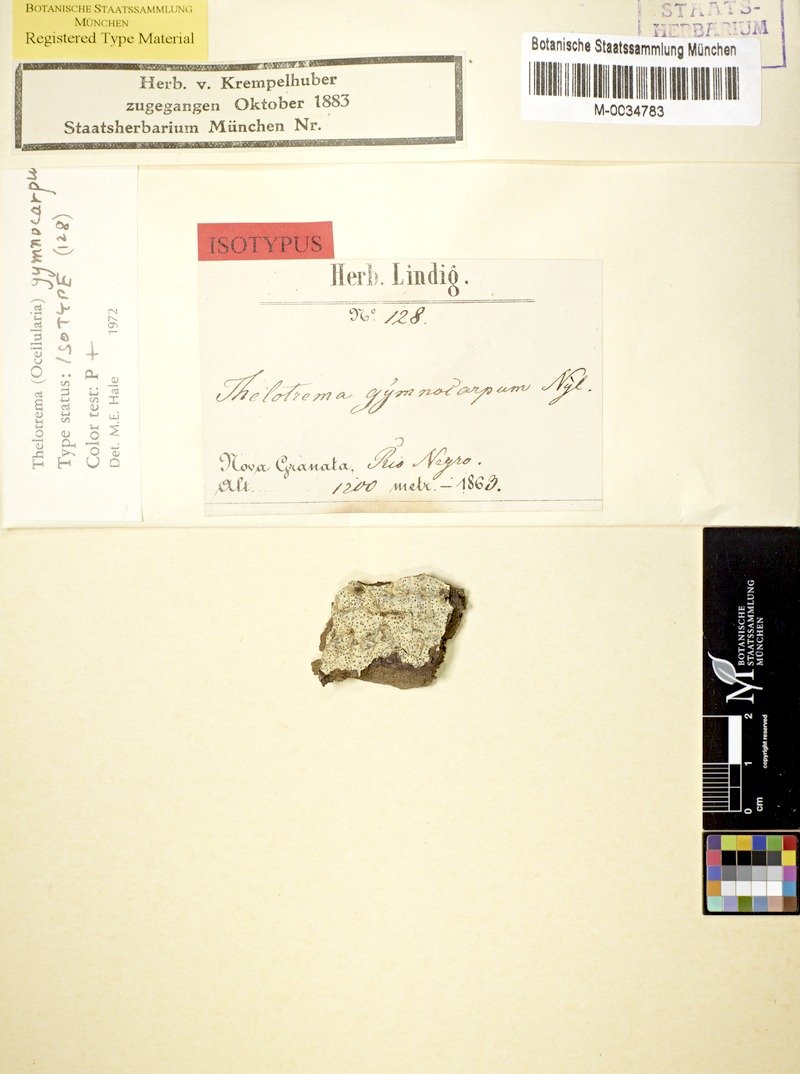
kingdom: Fungi
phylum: Ascomycota
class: Lecanoromycetes
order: Ostropales
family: Graphidaceae
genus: Ocellularia
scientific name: Ocellularia gymnocarpa
